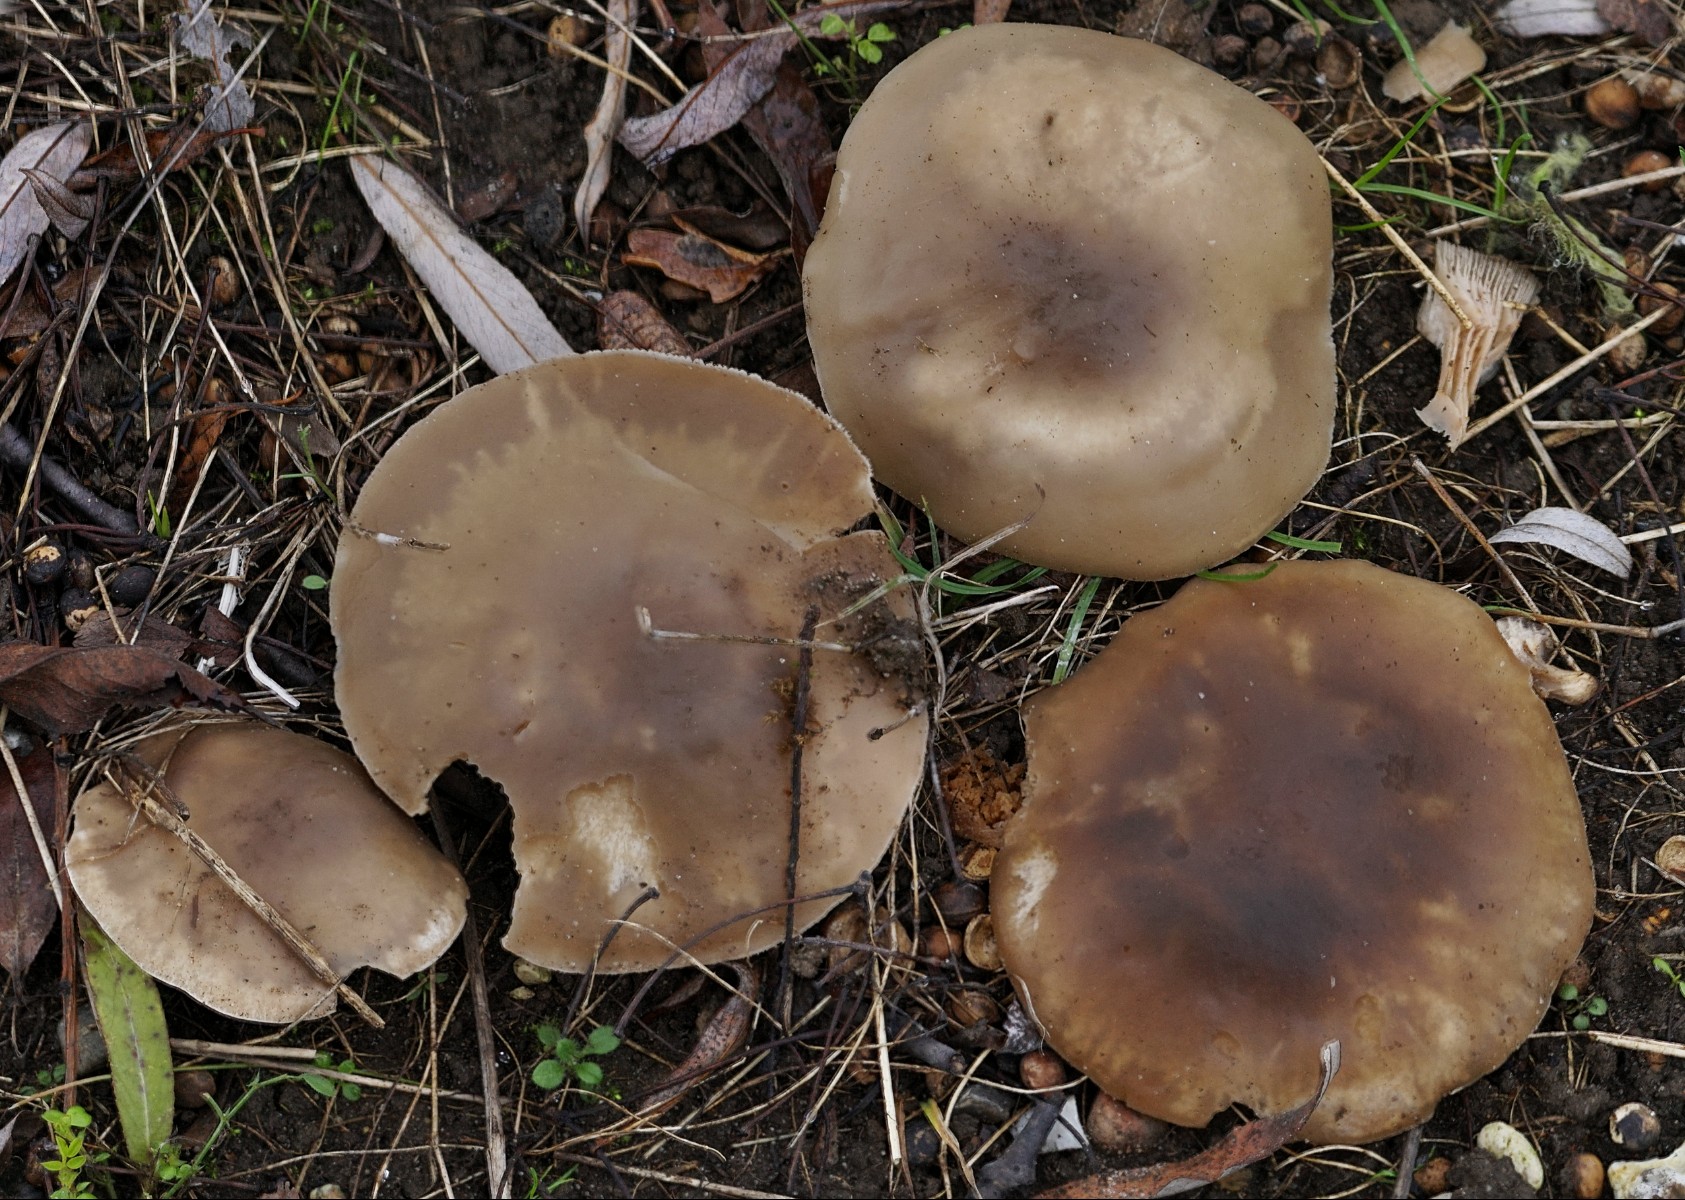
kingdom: Fungi
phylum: Basidiomycota
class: Agaricomycetes
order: Agaricales
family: Tricholomataceae
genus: Lepista
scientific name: Lepista irina
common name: violduftende hekseringshat
